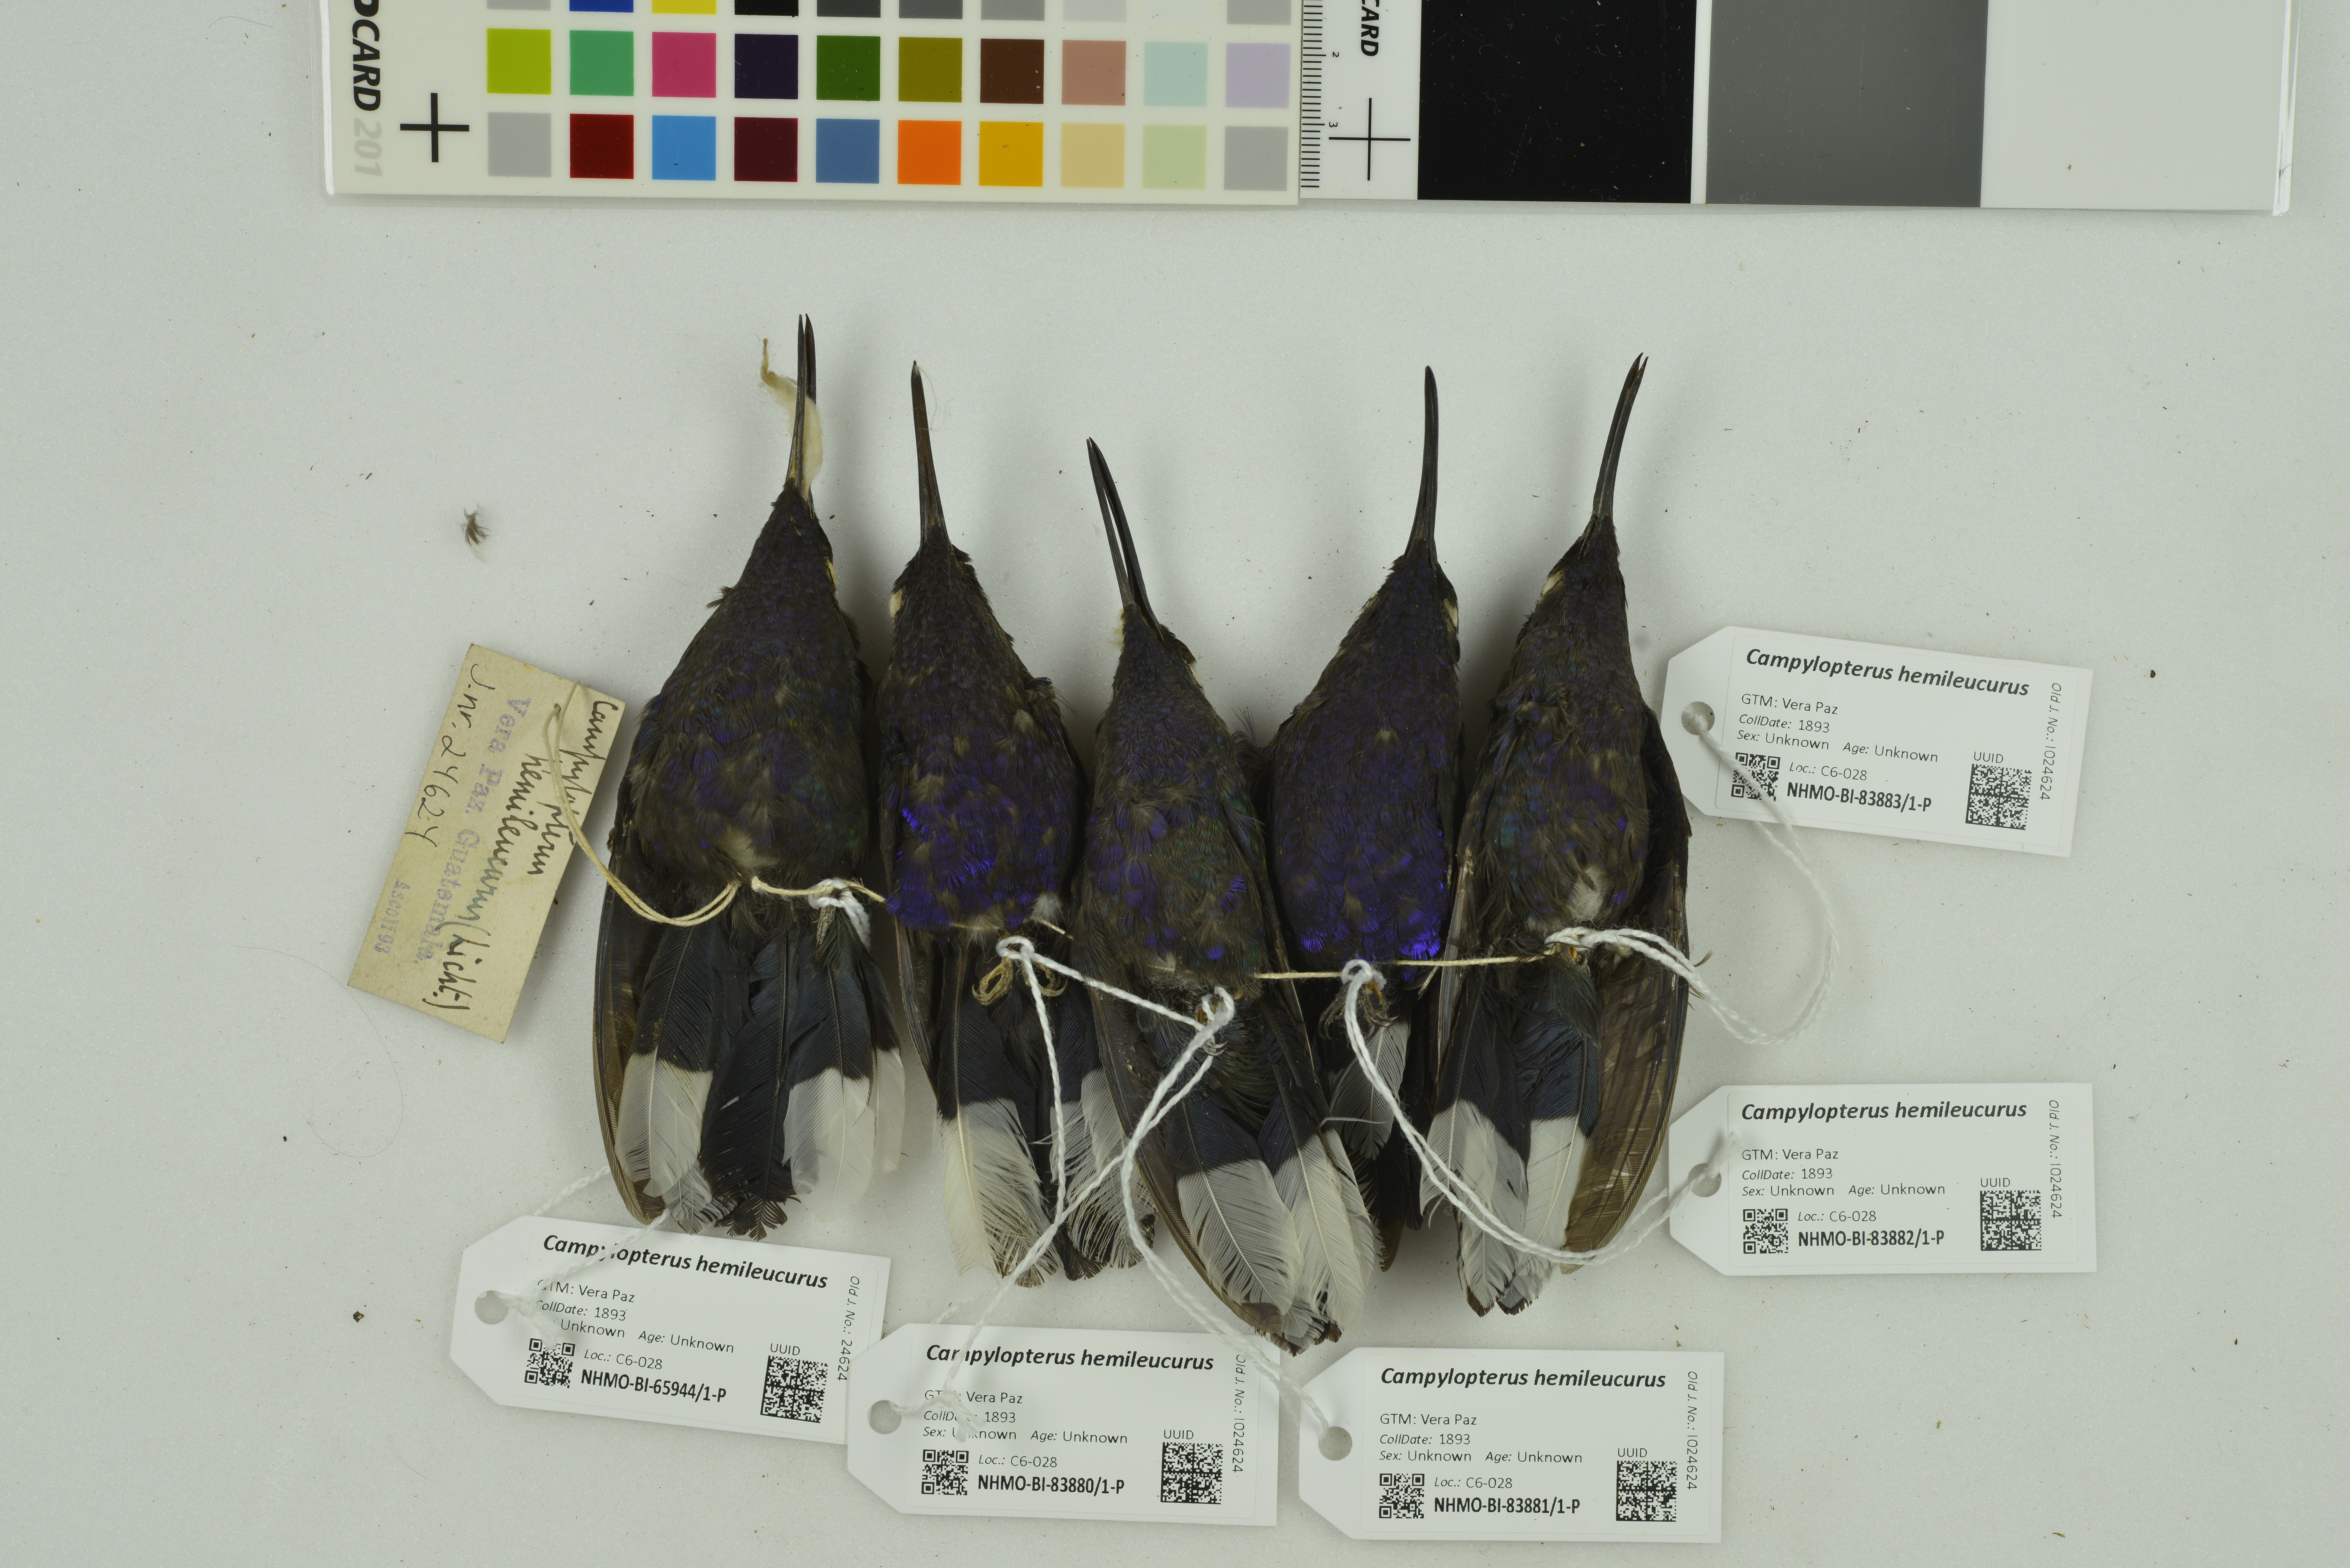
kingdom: Animalia
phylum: Chordata
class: Aves
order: Apodiformes
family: Trochilidae
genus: Campylopterus
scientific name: Campylopterus hemileucurus
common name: Violet sabrewing
